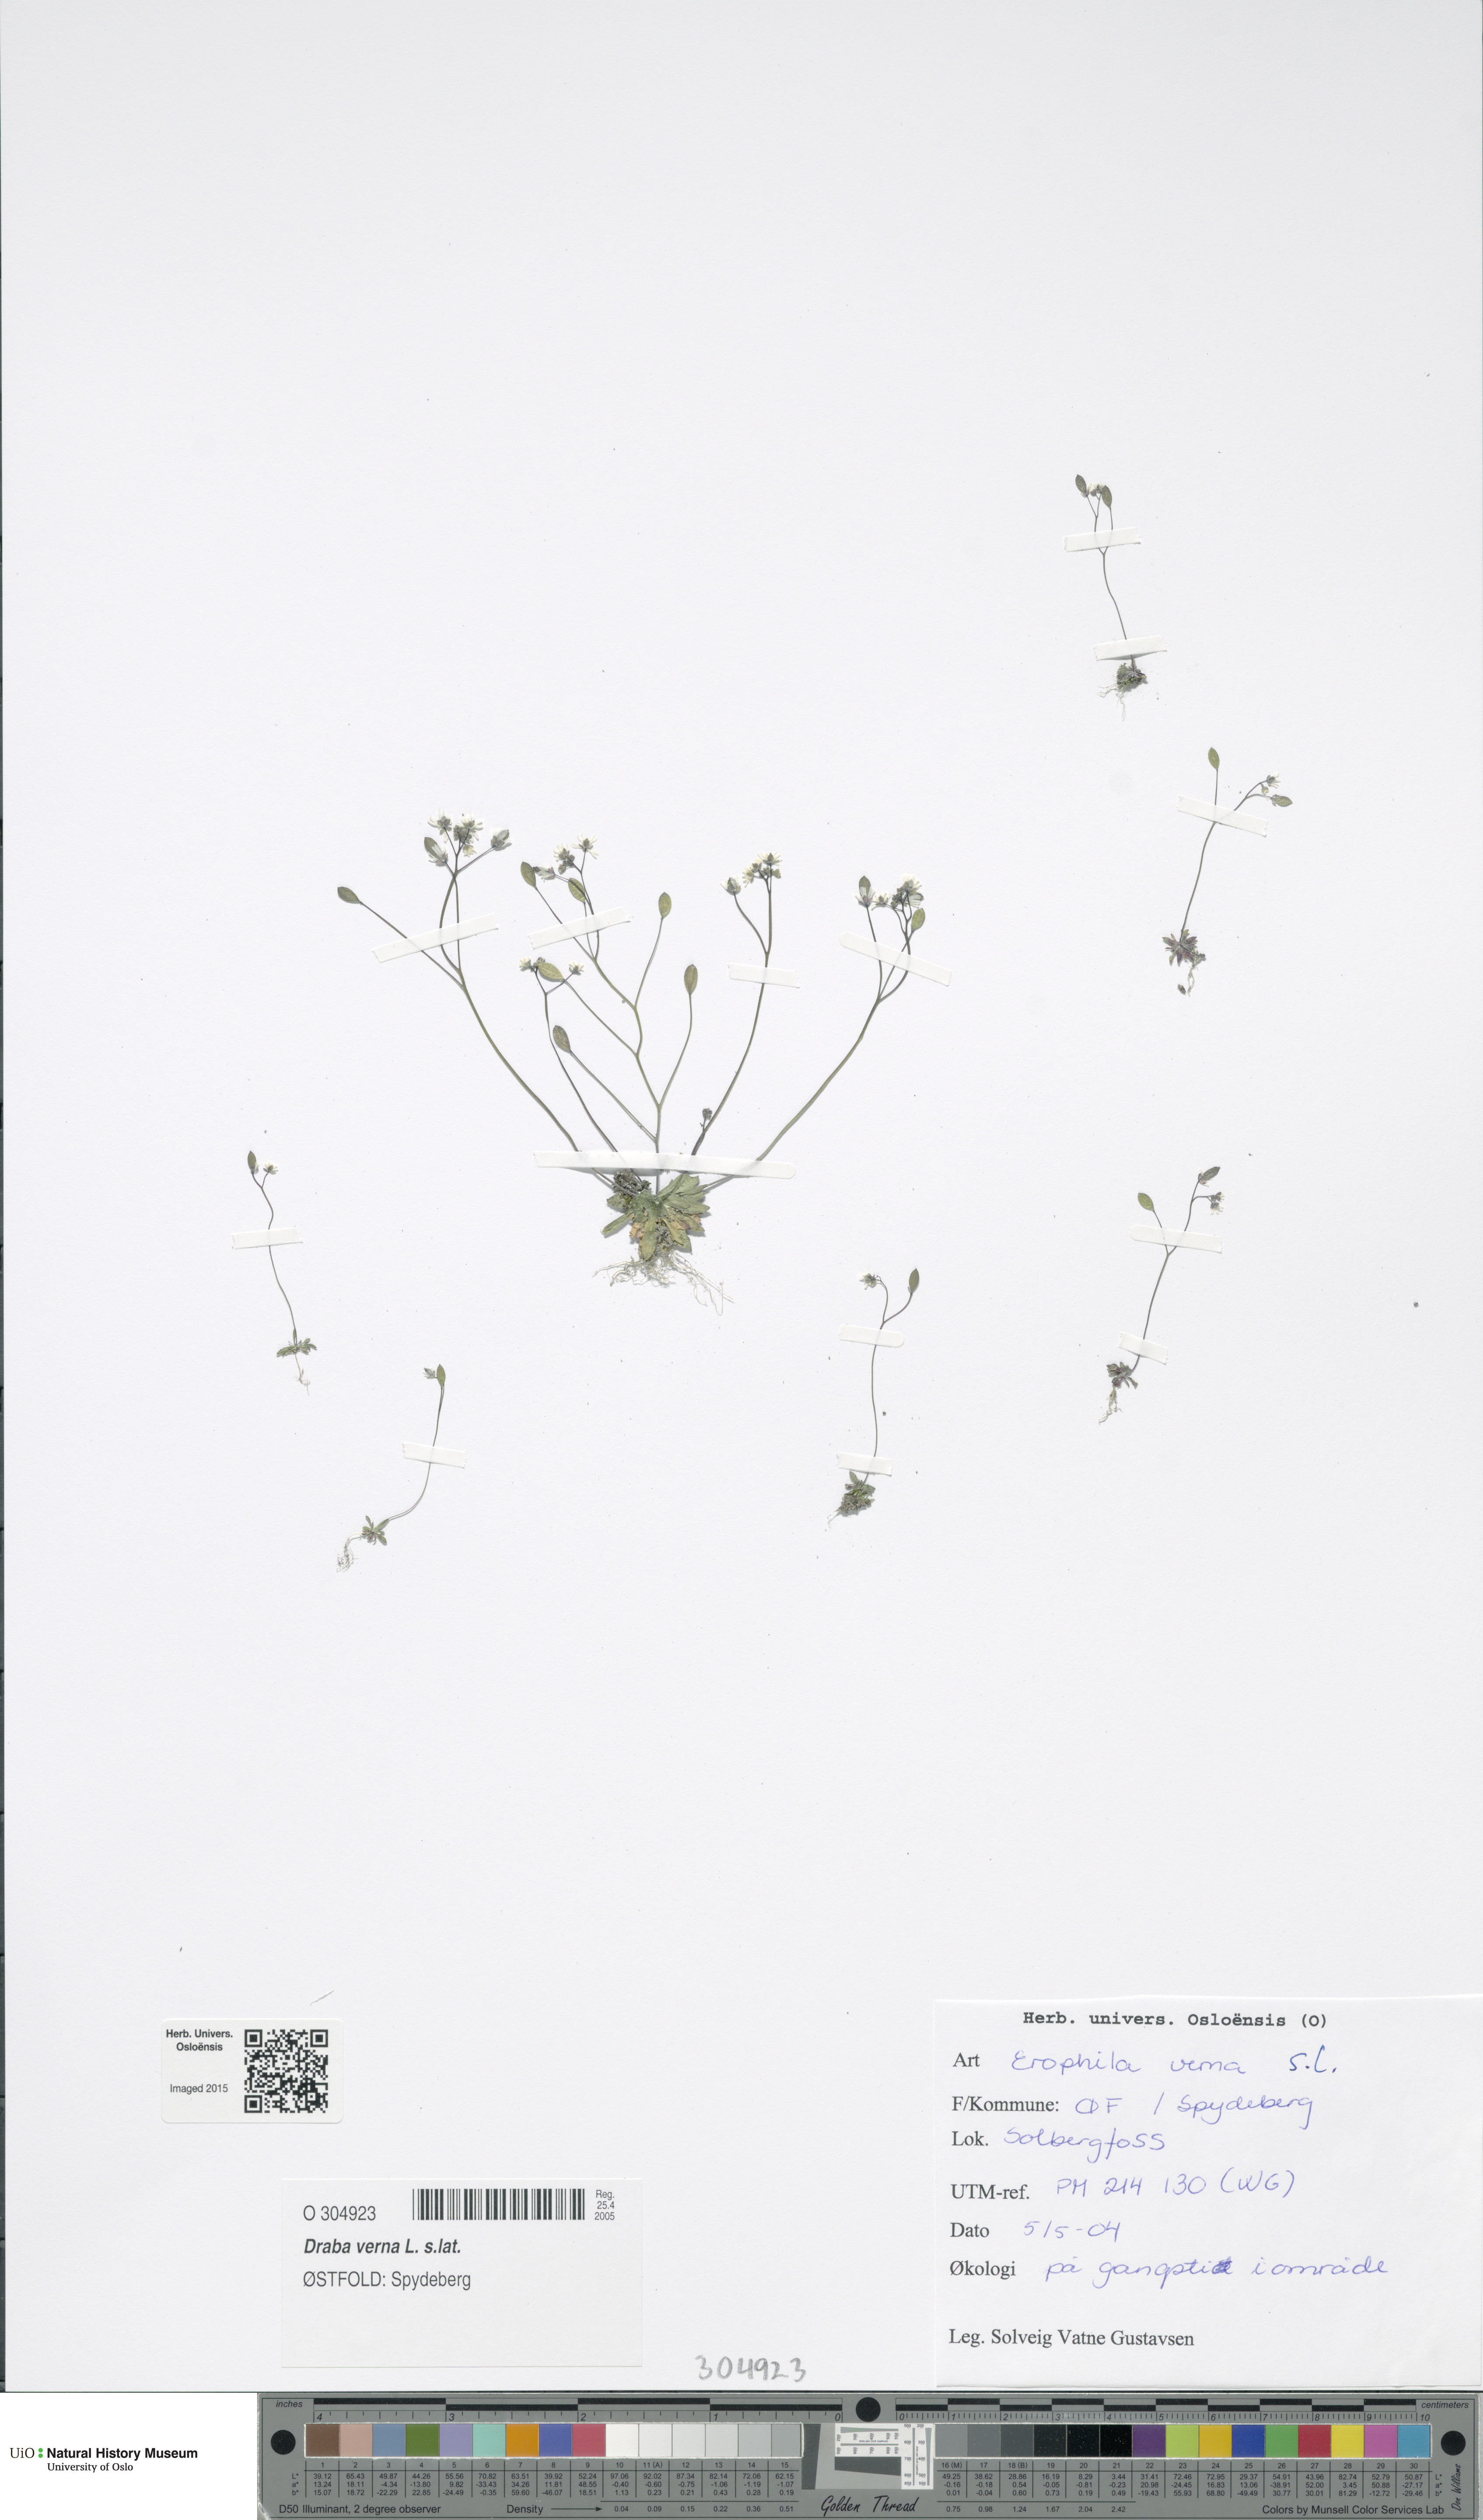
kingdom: Plantae
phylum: Tracheophyta
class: Magnoliopsida
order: Brassicales
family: Brassicaceae
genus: Draba
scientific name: Draba verna
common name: Spring draba
